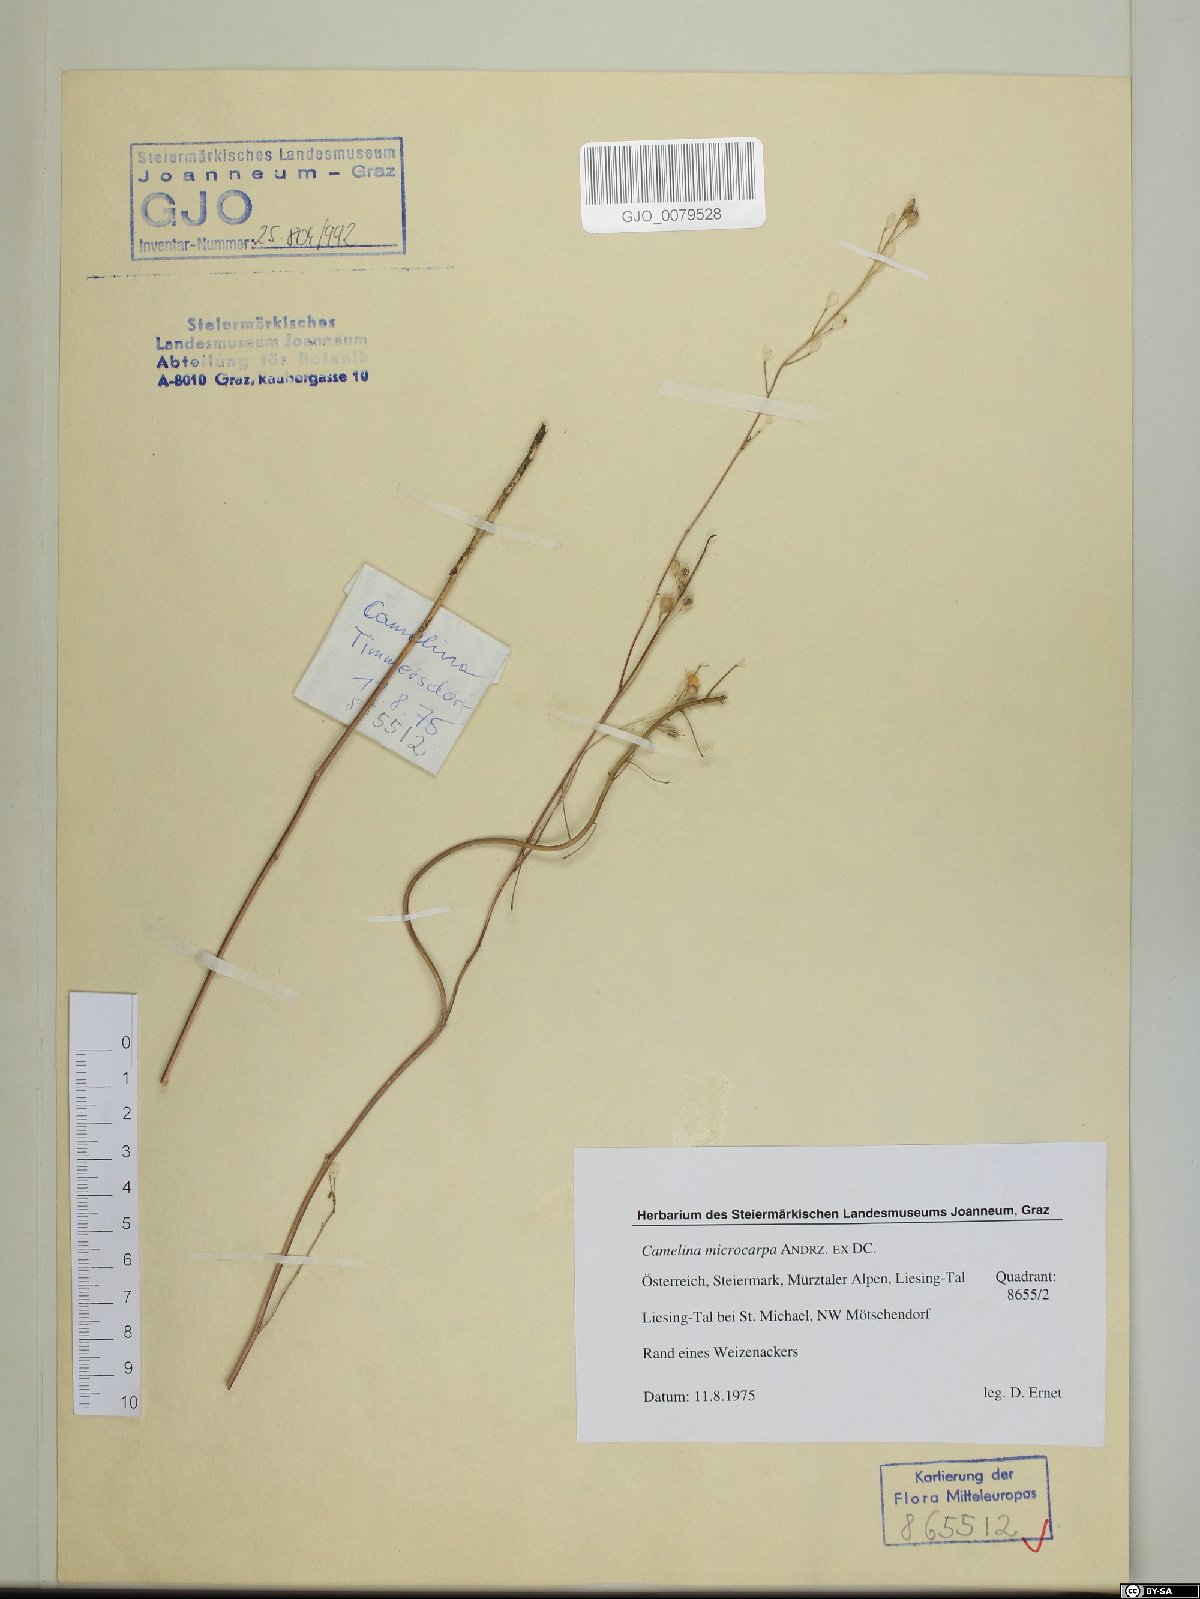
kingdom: Plantae
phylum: Tracheophyta
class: Magnoliopsida
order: Brassicales
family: Brassicaceae
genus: Camelina
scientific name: Camelina microcarpa
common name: Lesser gold-of-pleasure
